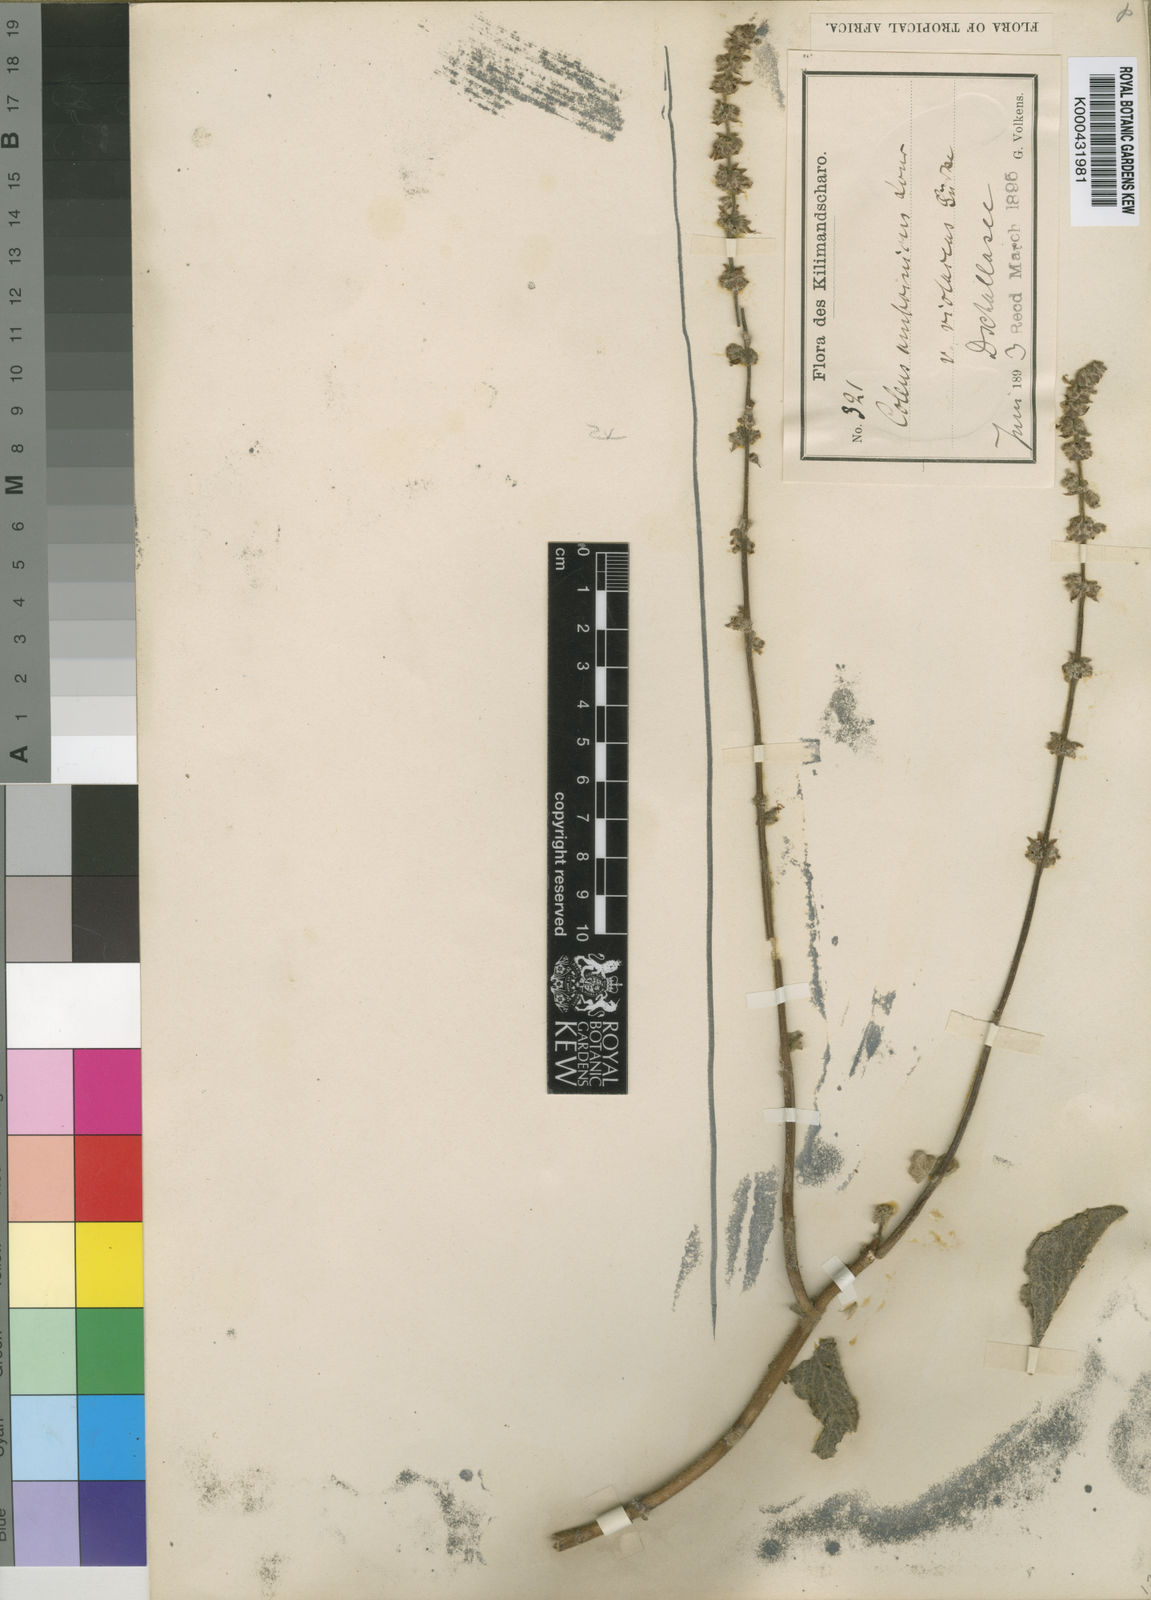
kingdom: Plantae
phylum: Tracheophyta
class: Magnoliopsida
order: Lamiales
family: Lamiaceae
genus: Coleus
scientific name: Coleus amboinicus
